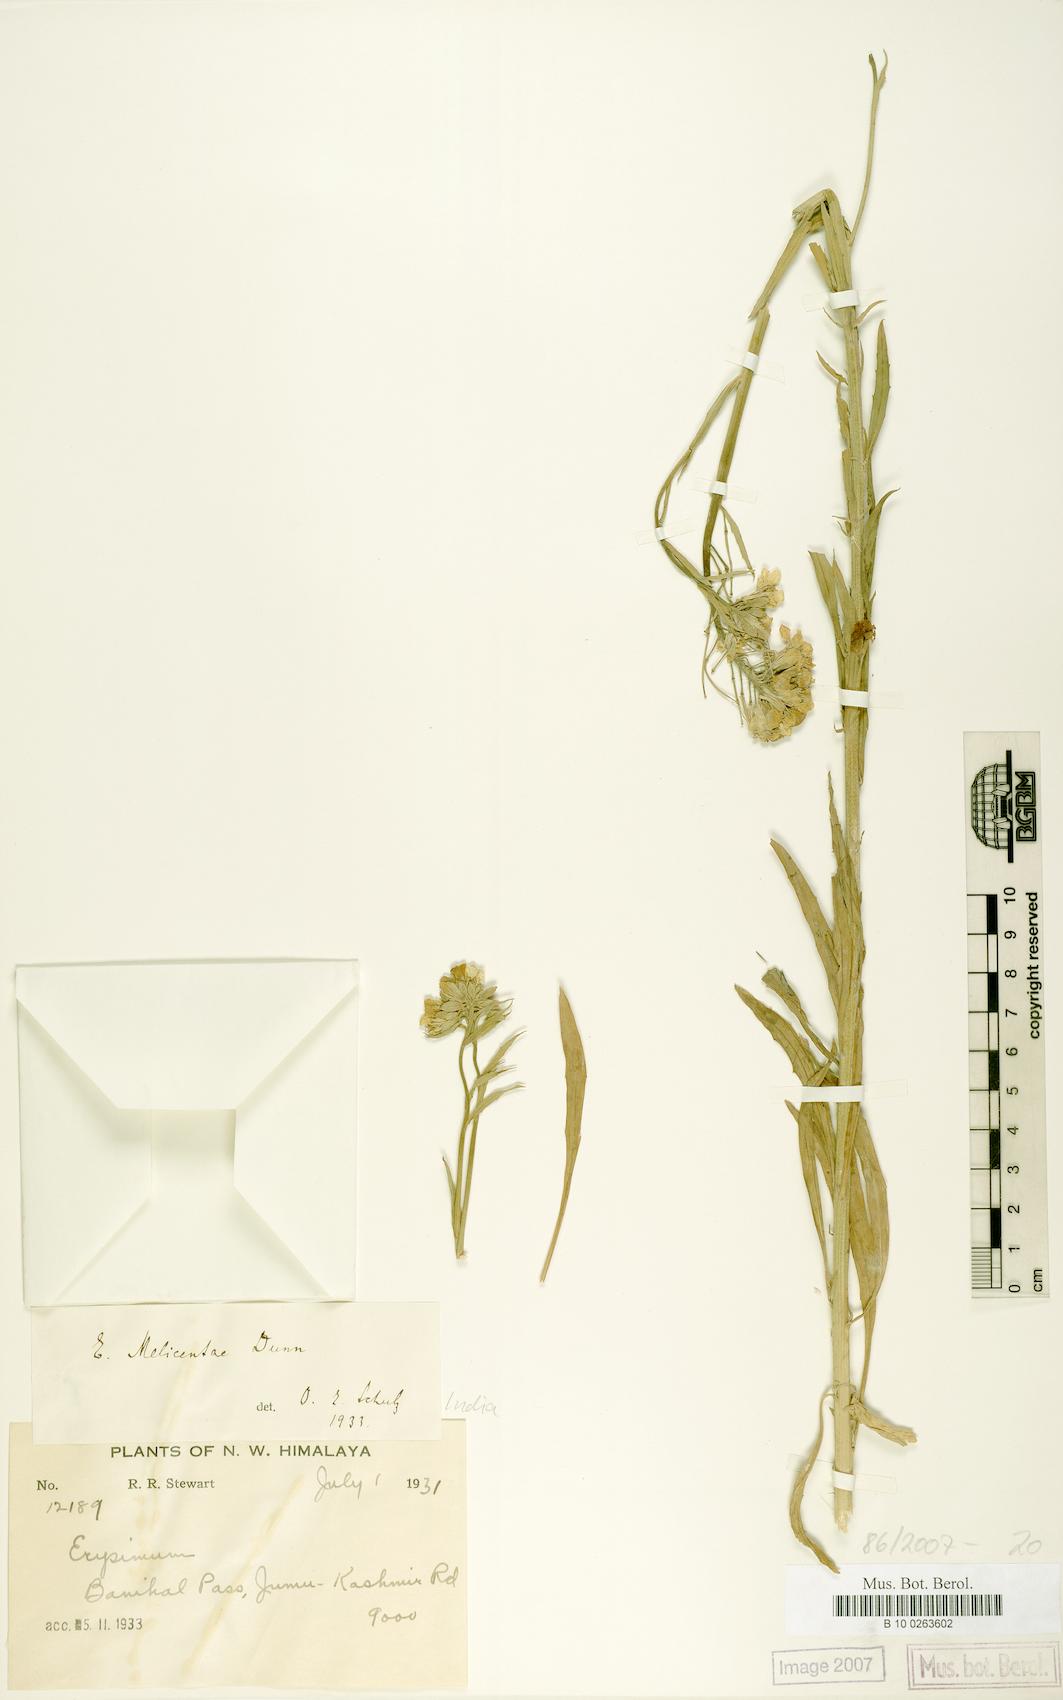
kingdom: Plantae
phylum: Tracheophyta
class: Magnoliopsida
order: Brassicales
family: Brassicaceae
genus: Erysimum
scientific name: Erysimum melicentae
